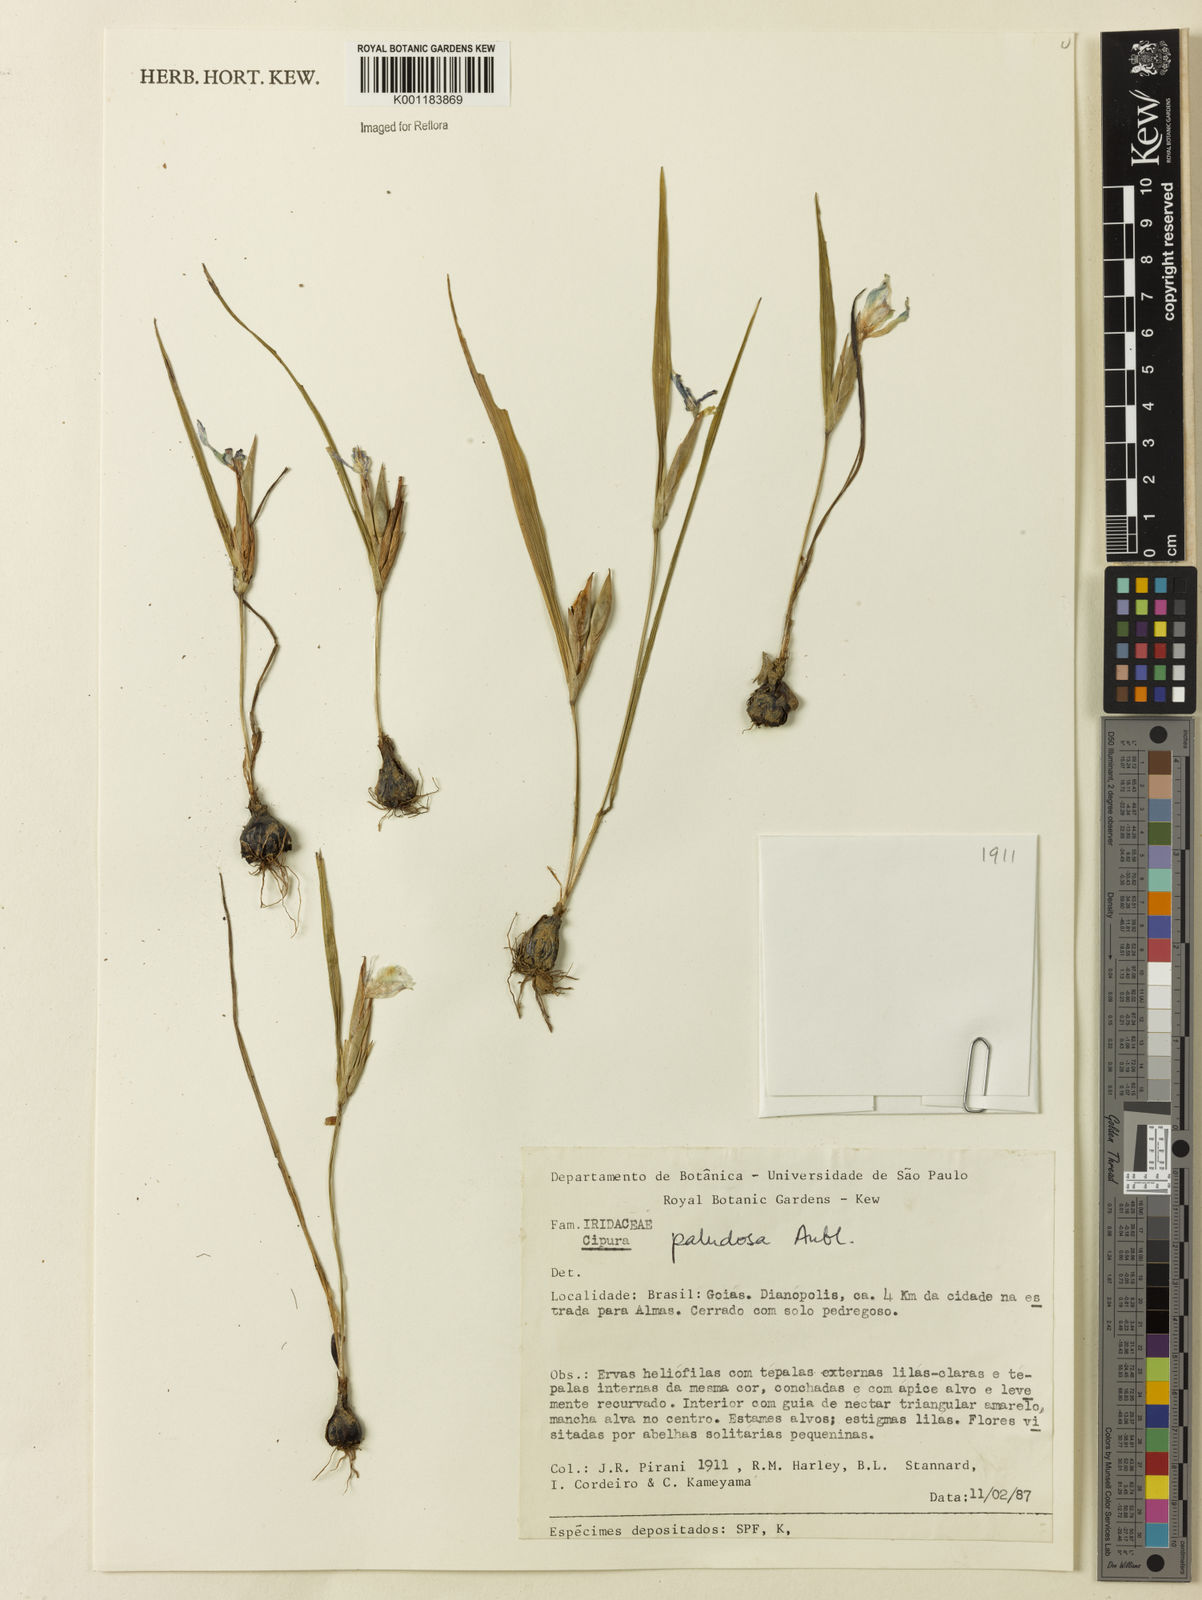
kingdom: Plantae
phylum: Tracheophyta
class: Liliopsida
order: Asparagales
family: Iridaceae
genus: Cipura
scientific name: Cipura paludosa
